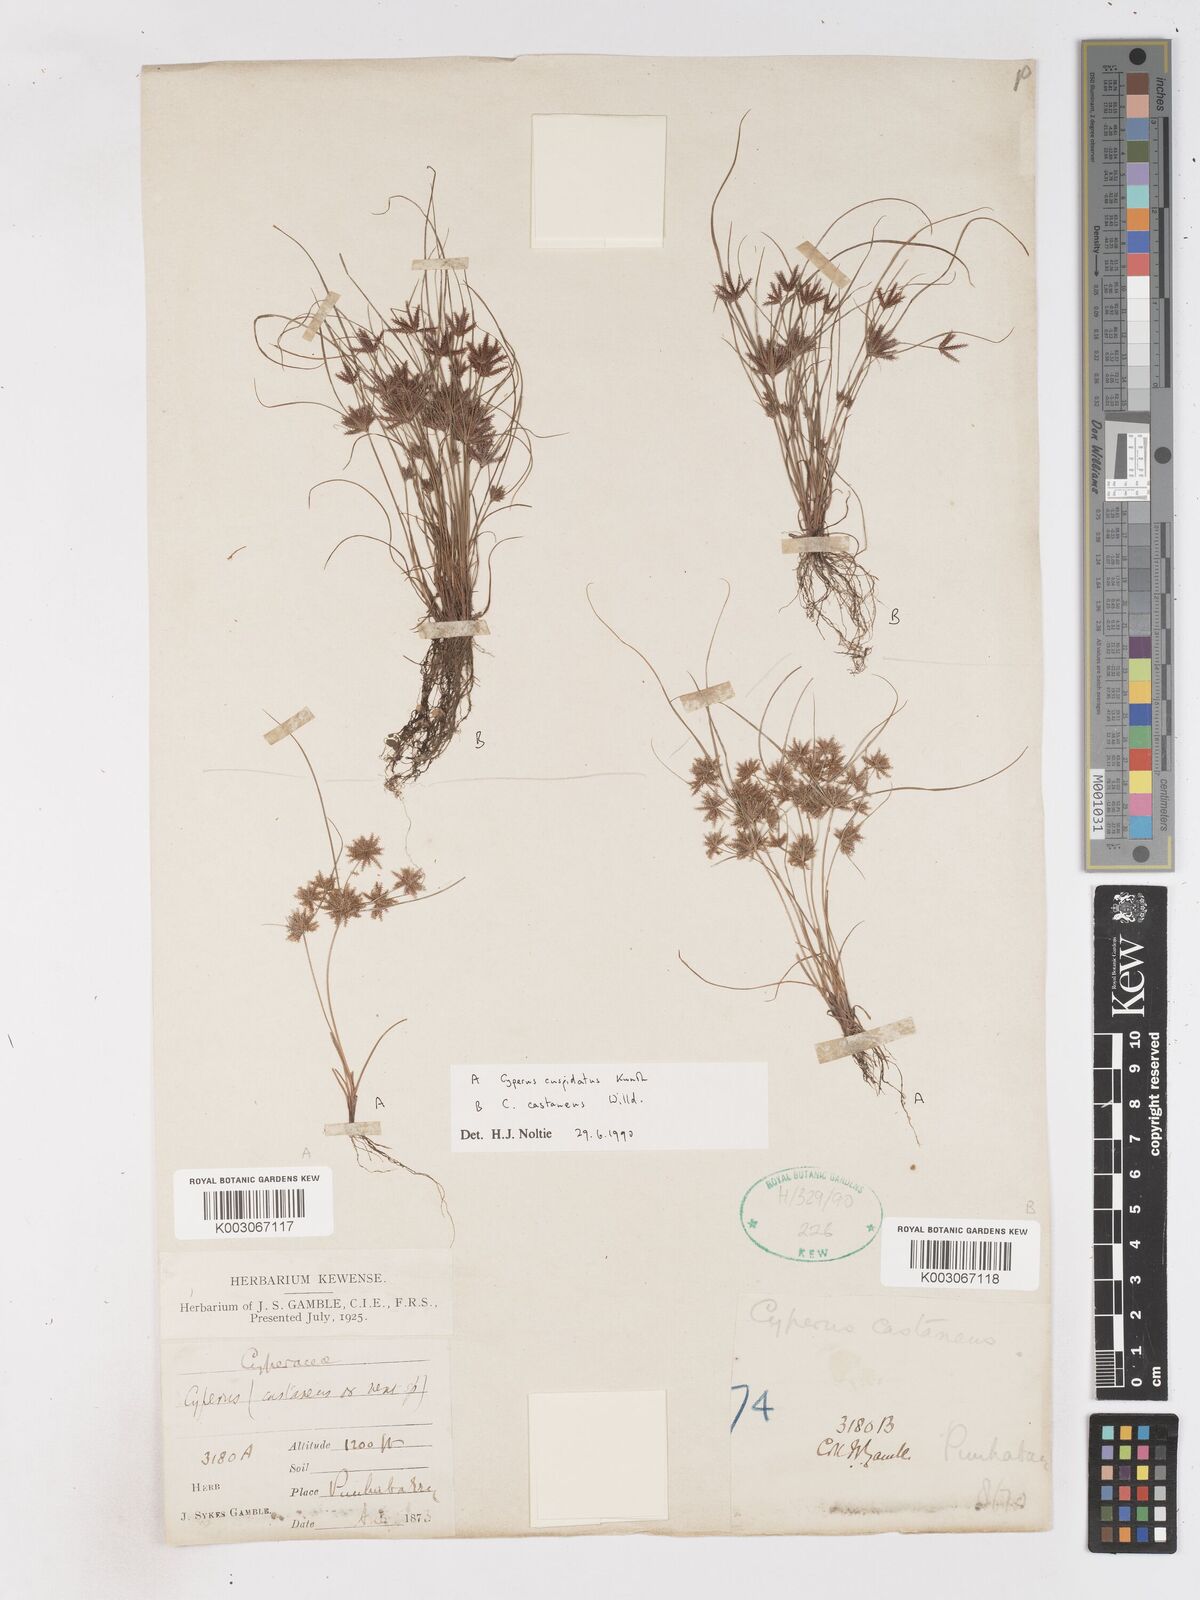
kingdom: Plantae
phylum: Tracheophyta
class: Liliopsida
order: Poales
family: Cyperaceae
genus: Cyperus
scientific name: Cyperus cuspidatus
